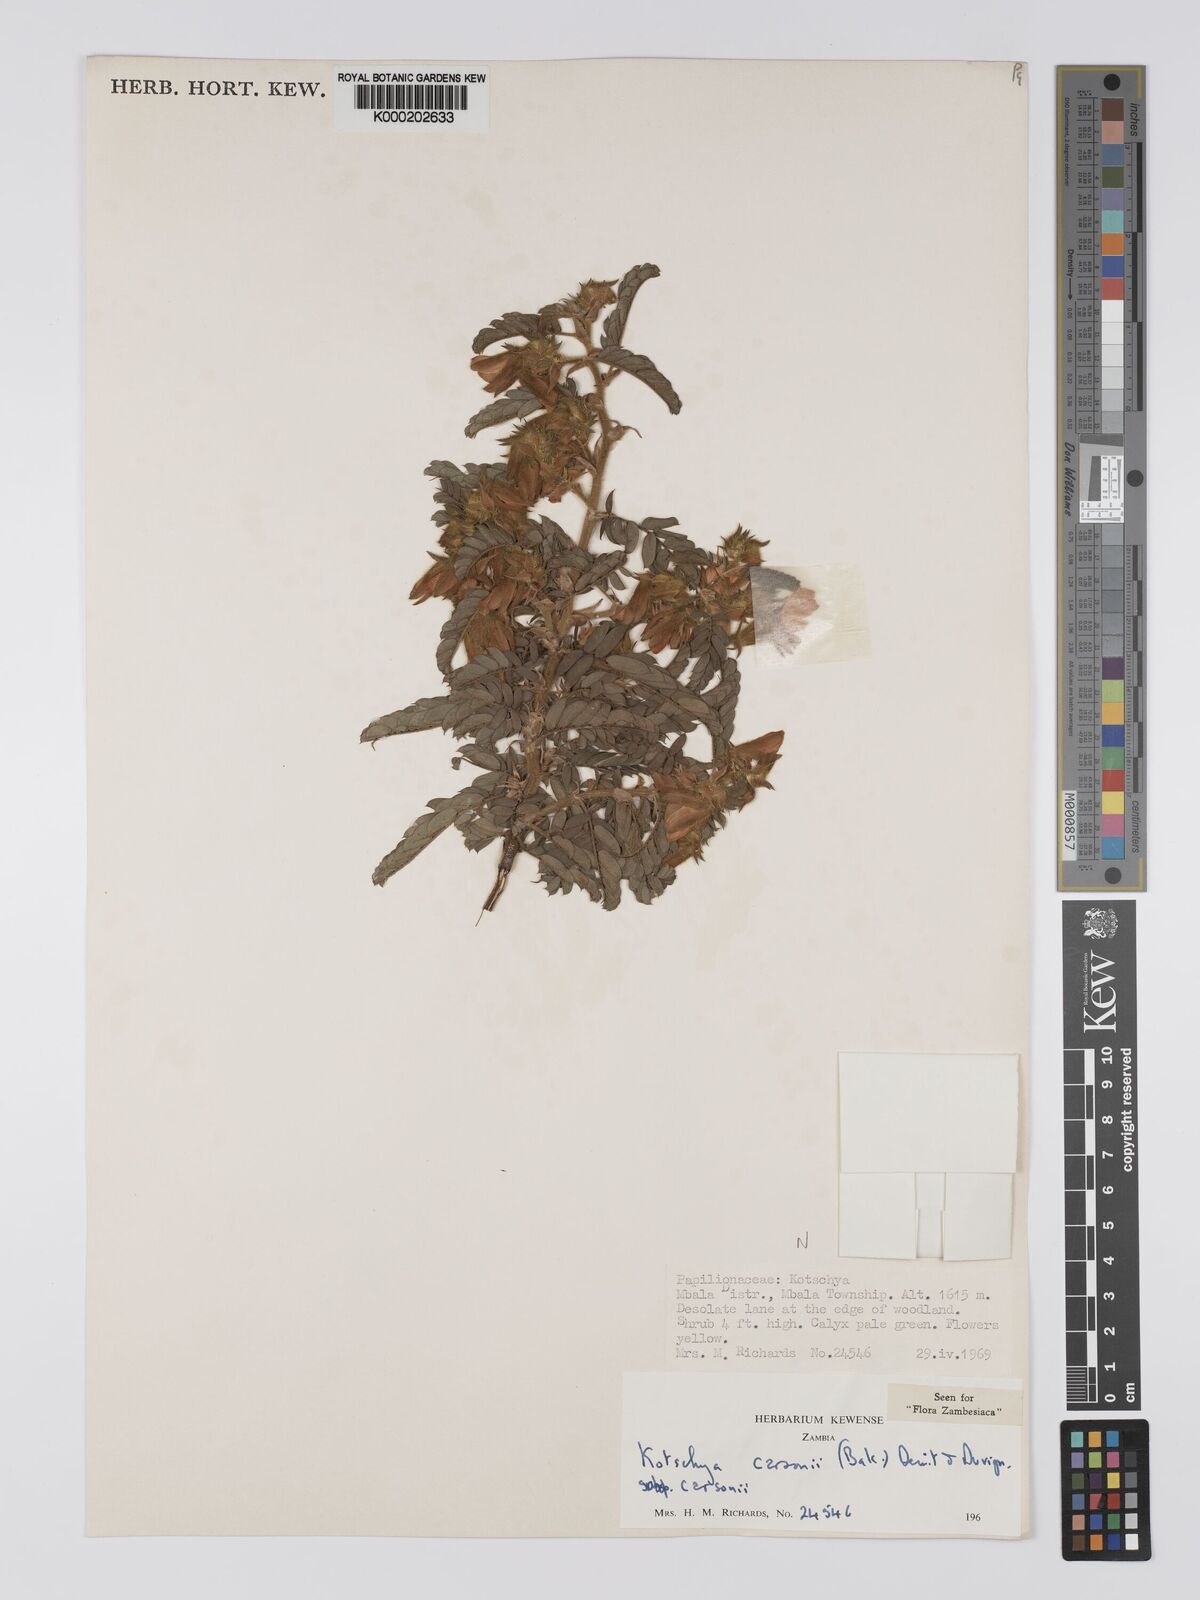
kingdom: Plantae
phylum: Tracheophyta
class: Magnoliopsida
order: Fabales
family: Fabaceae
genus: Kotschya
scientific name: Kotschya carsonii
